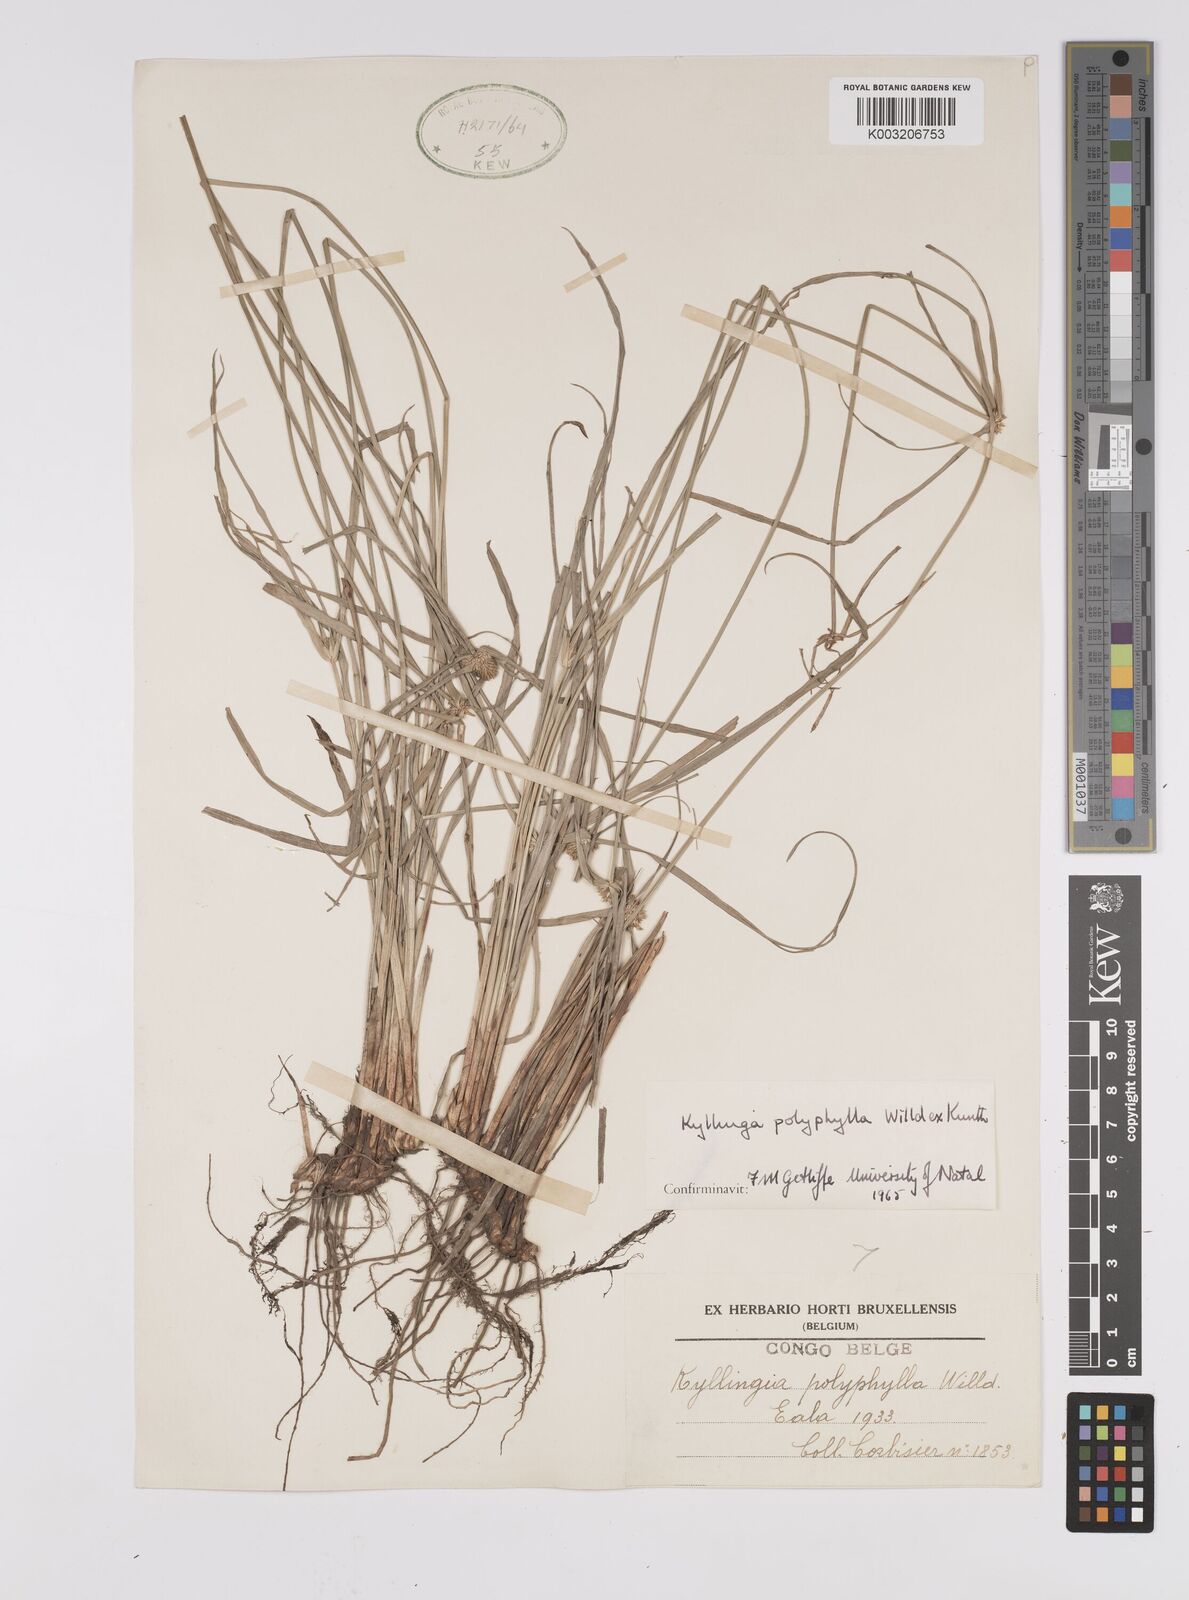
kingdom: Plantae
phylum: Tracheophyta
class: Liliopsida
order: Poales
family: Cyperaceae
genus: Cyperus
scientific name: Cyperus
